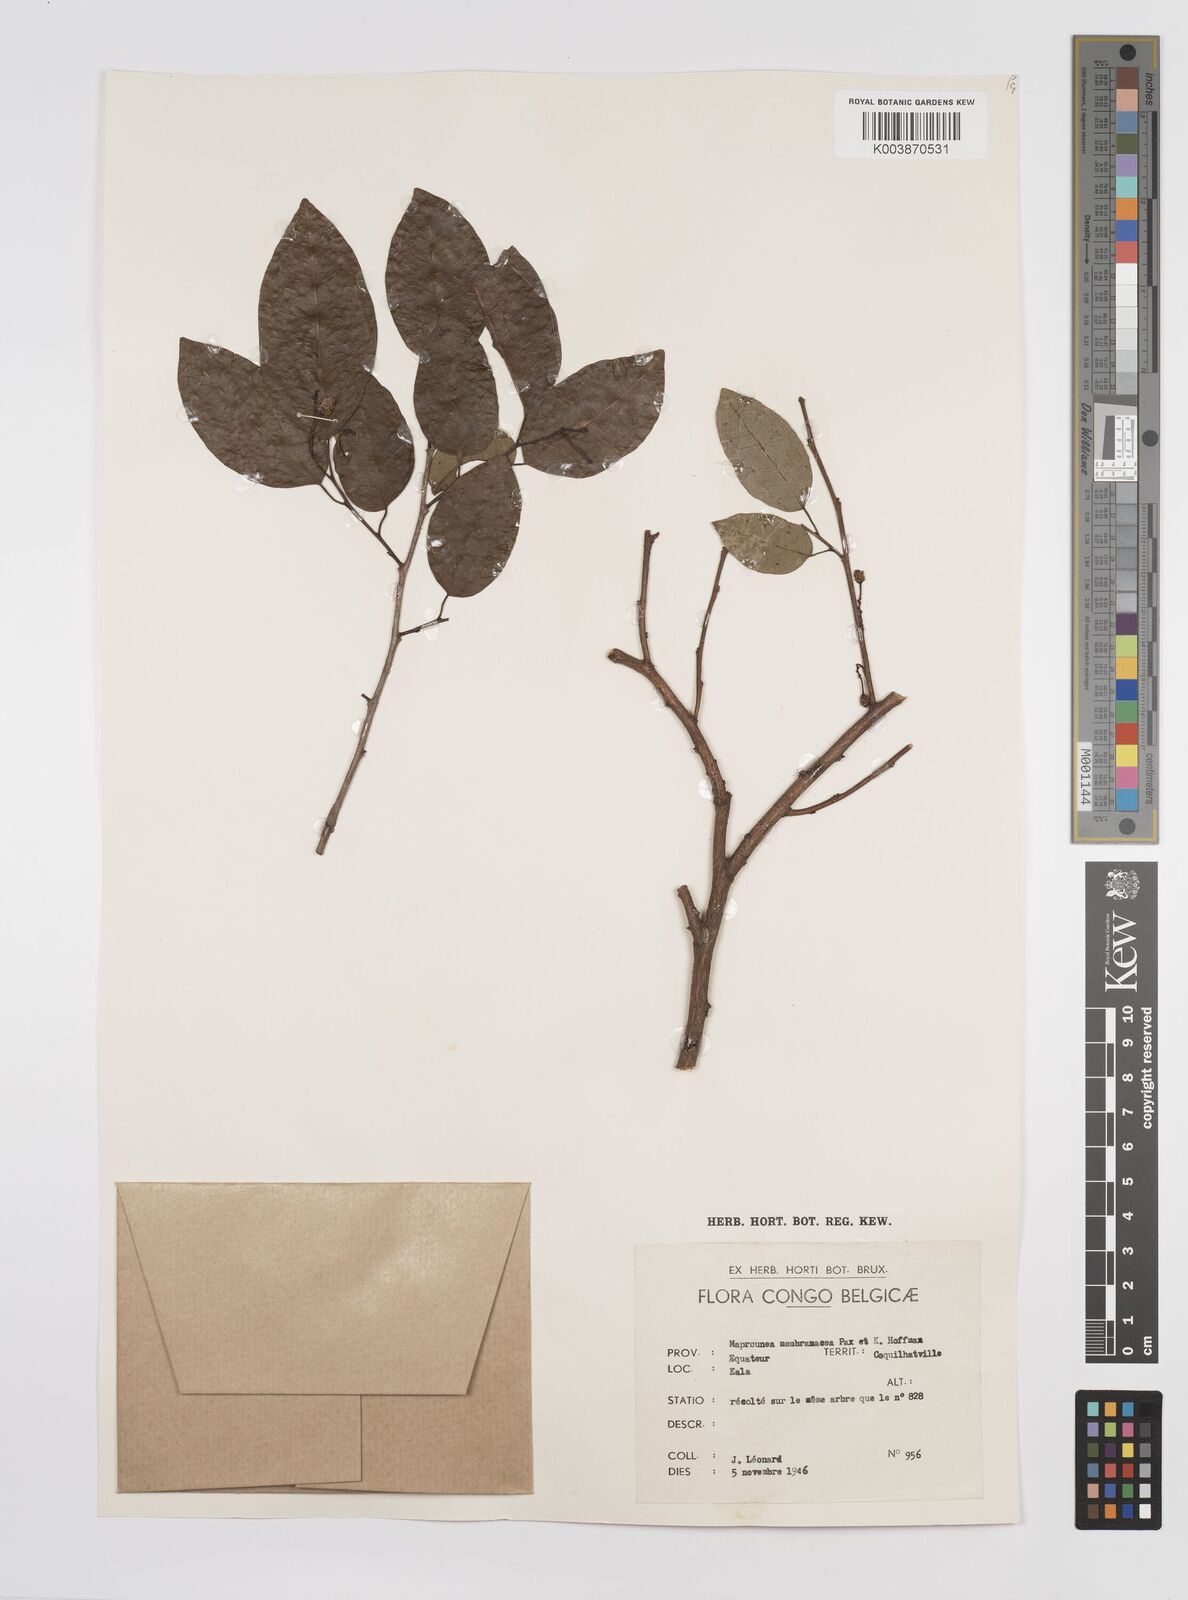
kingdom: Plantae
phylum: Tracheophyta
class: Magnoliopsida
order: Malpighiales
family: Euphorbiaceae
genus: Maprounea
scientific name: Maprounea membranacea
